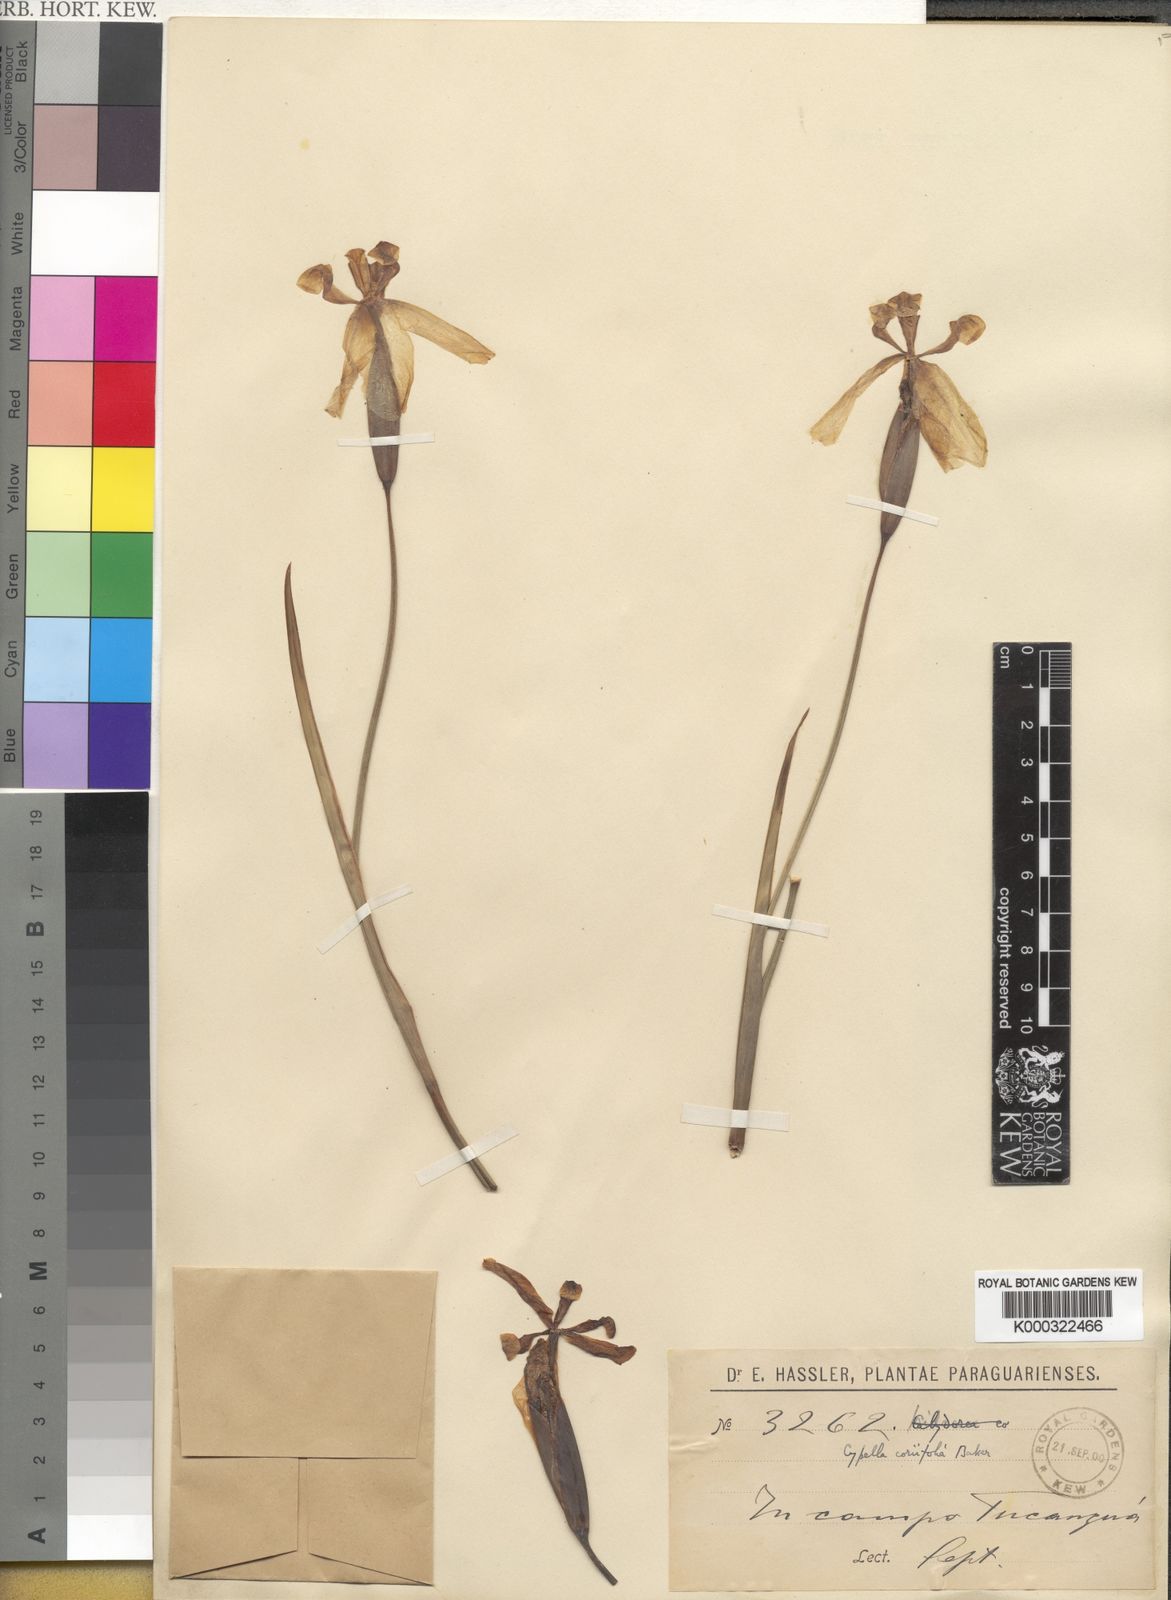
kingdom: Plantae
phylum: Tracheophyta
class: Liliopsida
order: Asparagales
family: Iridaceae
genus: Trimezia
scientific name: Trimezia spathata
